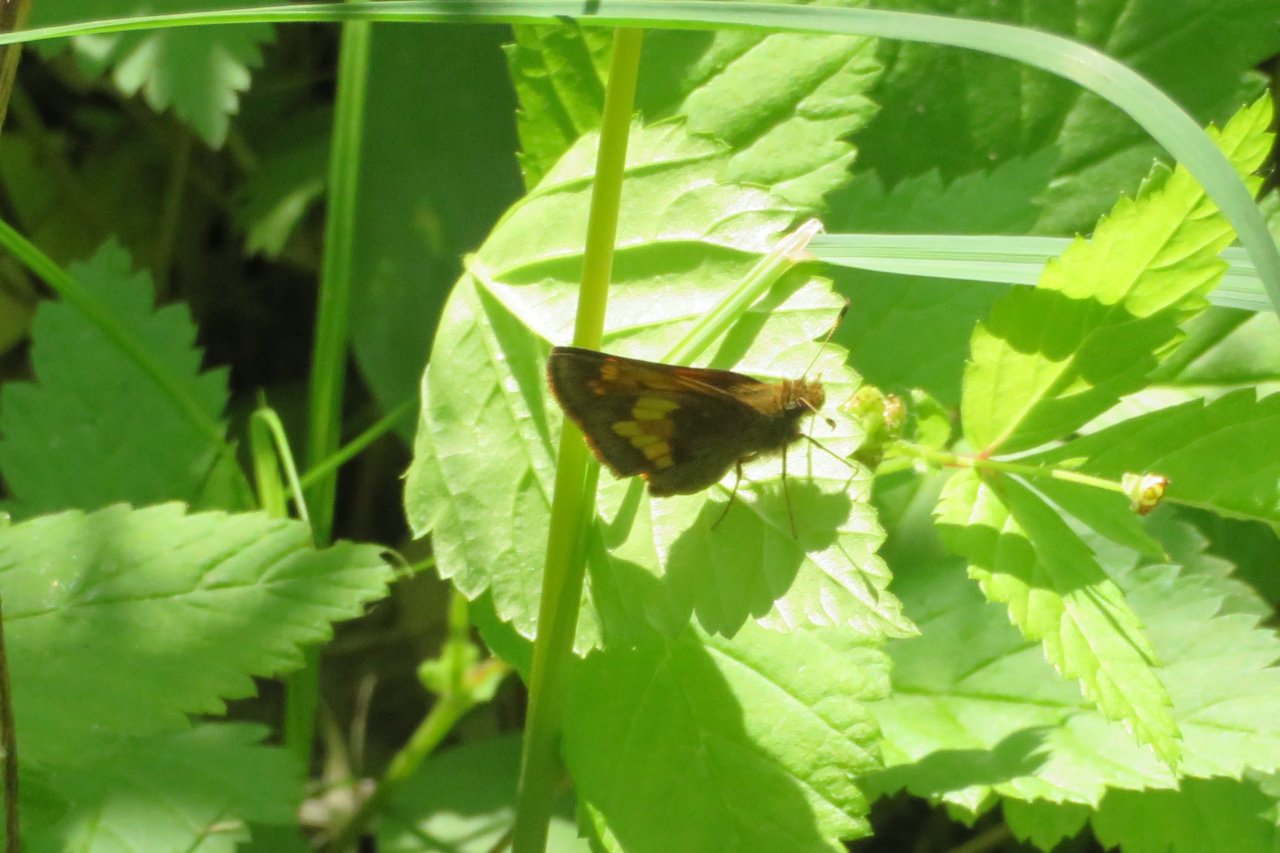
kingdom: Animalia
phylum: Arthropoda
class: Insecta
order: Lepidoptera
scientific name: Lepidoptera
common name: Butterflies
